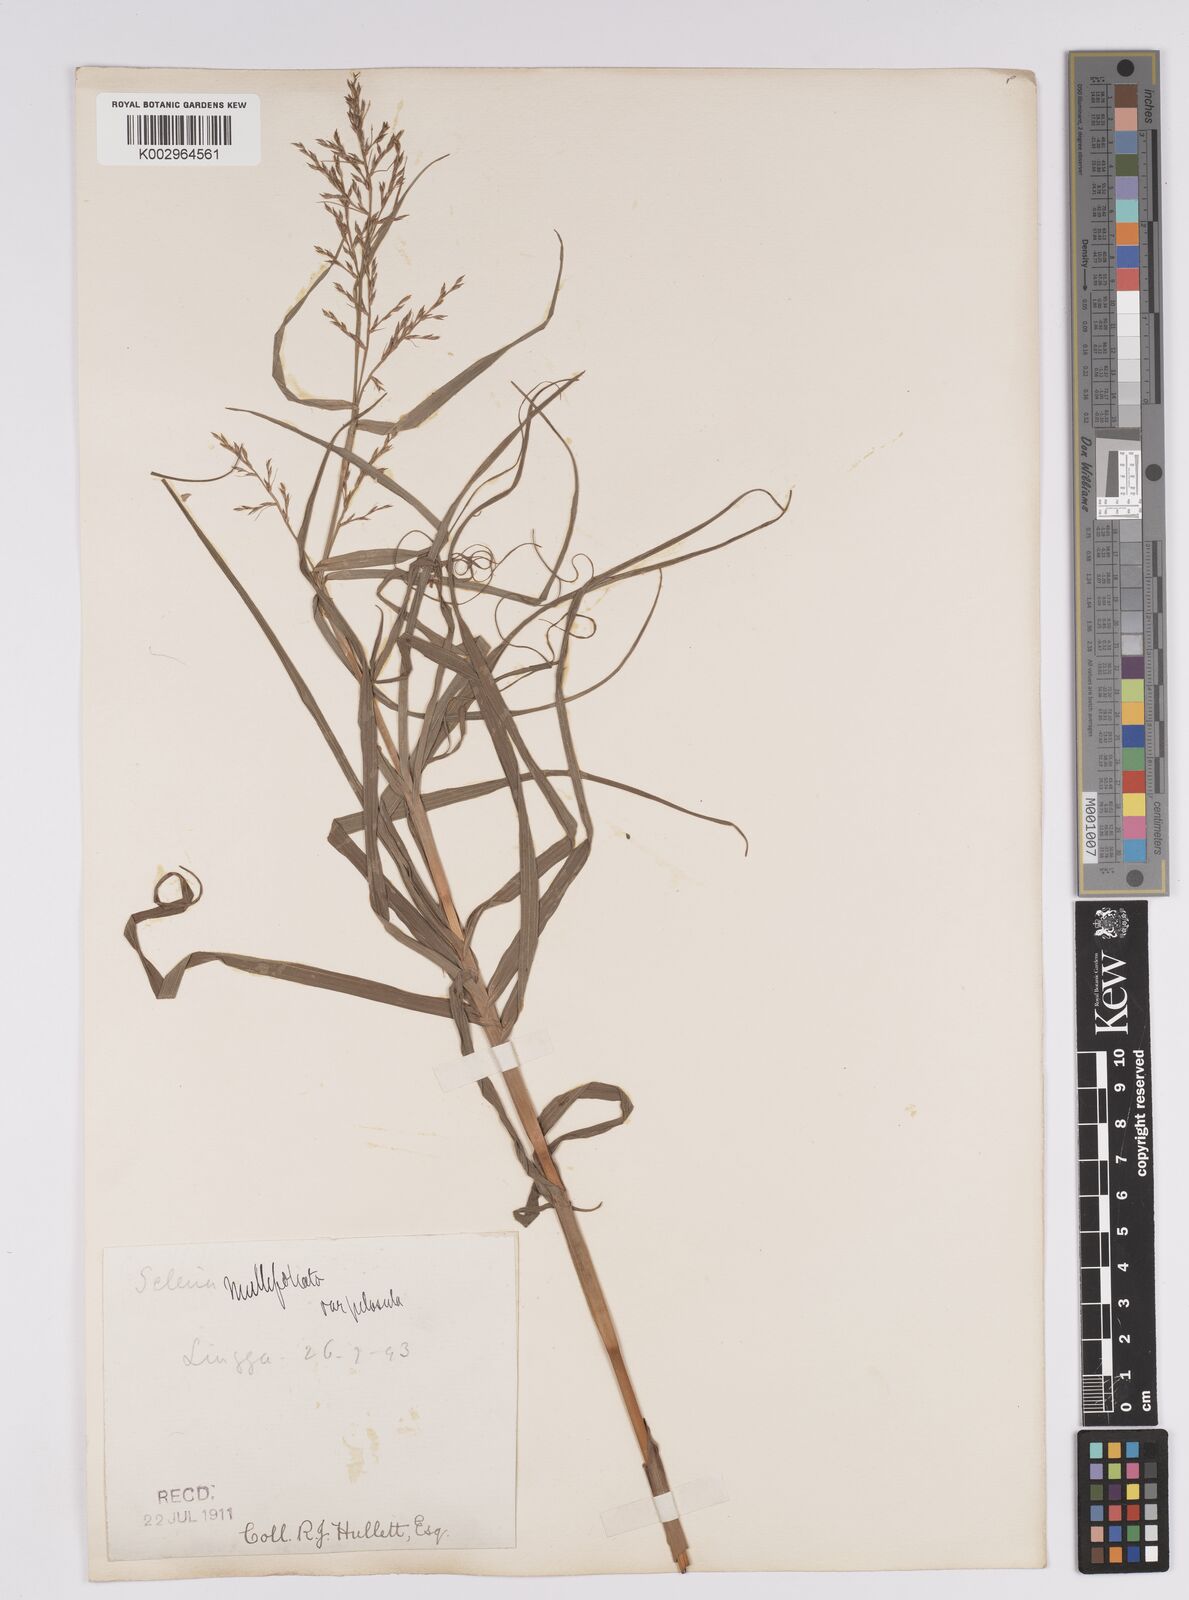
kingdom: Plantae
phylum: Tracheophyta
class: Liliopsida
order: Poales
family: Cyperaceae
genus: Scleria
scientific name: Scleria purpurascens
